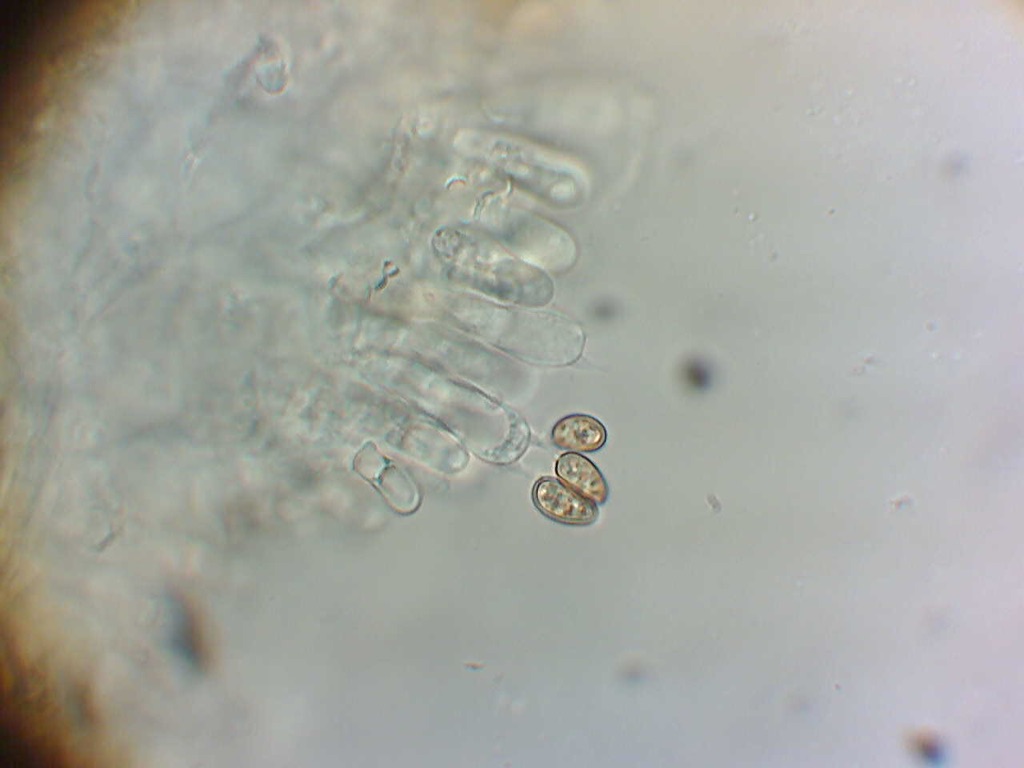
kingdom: Fungi
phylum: Basidiomycota
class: Agaricomycetes
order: Agaricales
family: Strophariaceae
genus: Pholiota
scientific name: Pholiota henningsii
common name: tørve-skælhat
